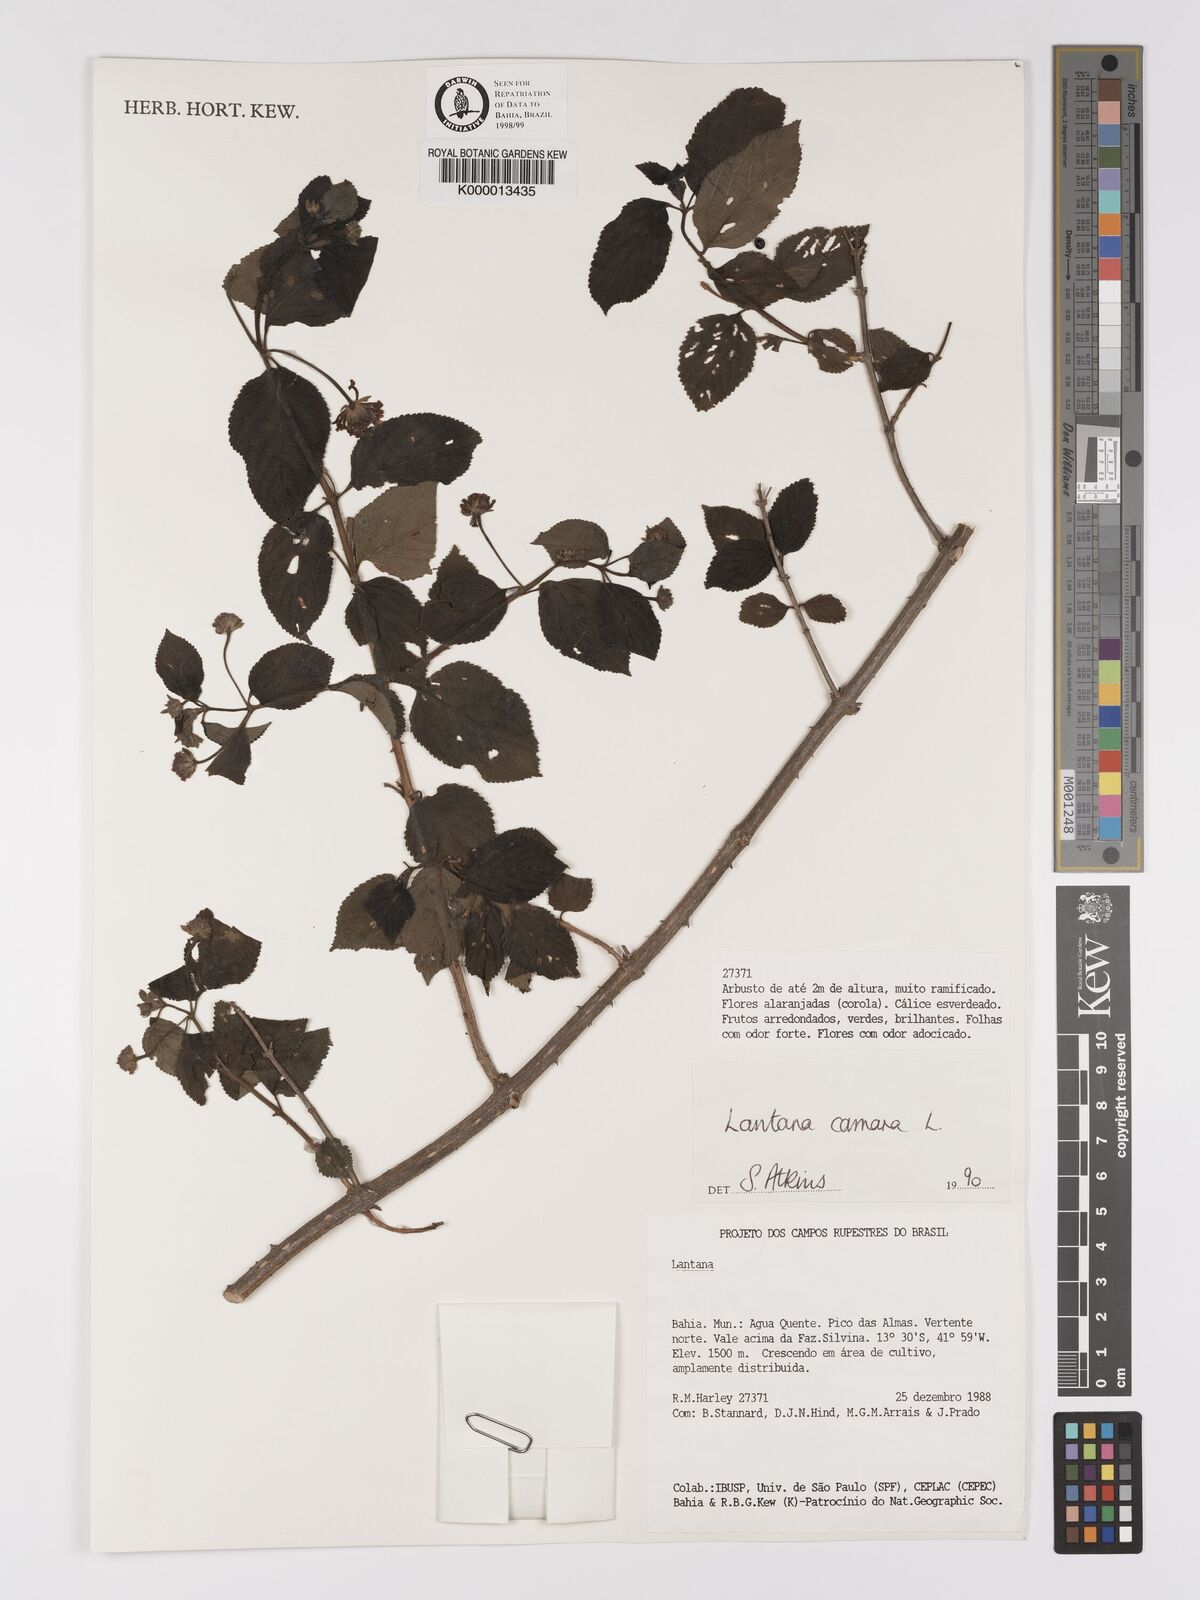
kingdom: Plantae
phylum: Tracheophyta
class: Magnoliopsida
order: Lamiales
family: Verbenaceae
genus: Lantana
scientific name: Lantana camara
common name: Lantana
